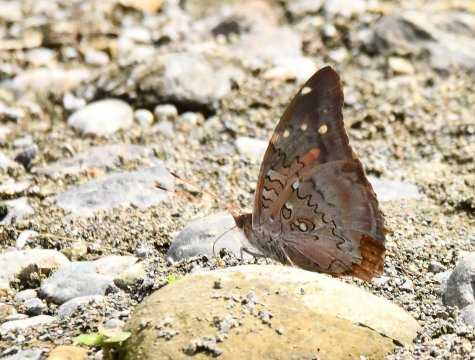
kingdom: Animalia
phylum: Arthropoda
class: Insecta
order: Lepidoptera
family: Nymphalidae
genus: Coea
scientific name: Coea acheronta
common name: Tailed Cecropian
